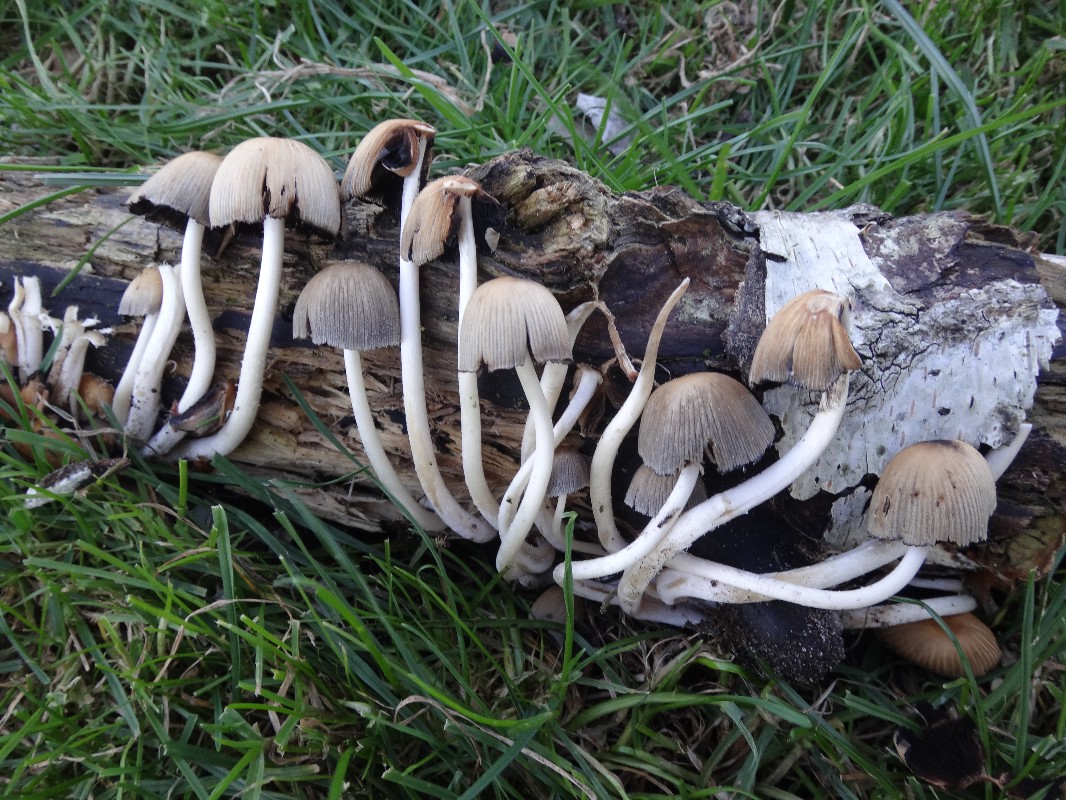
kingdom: Fungi
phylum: Basidiomycota
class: Agaricomycetes
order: Agaricales
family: Psathyrellaceae
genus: Coprinellus
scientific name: Coprinellus micaceus
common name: glimmer-blækhat
